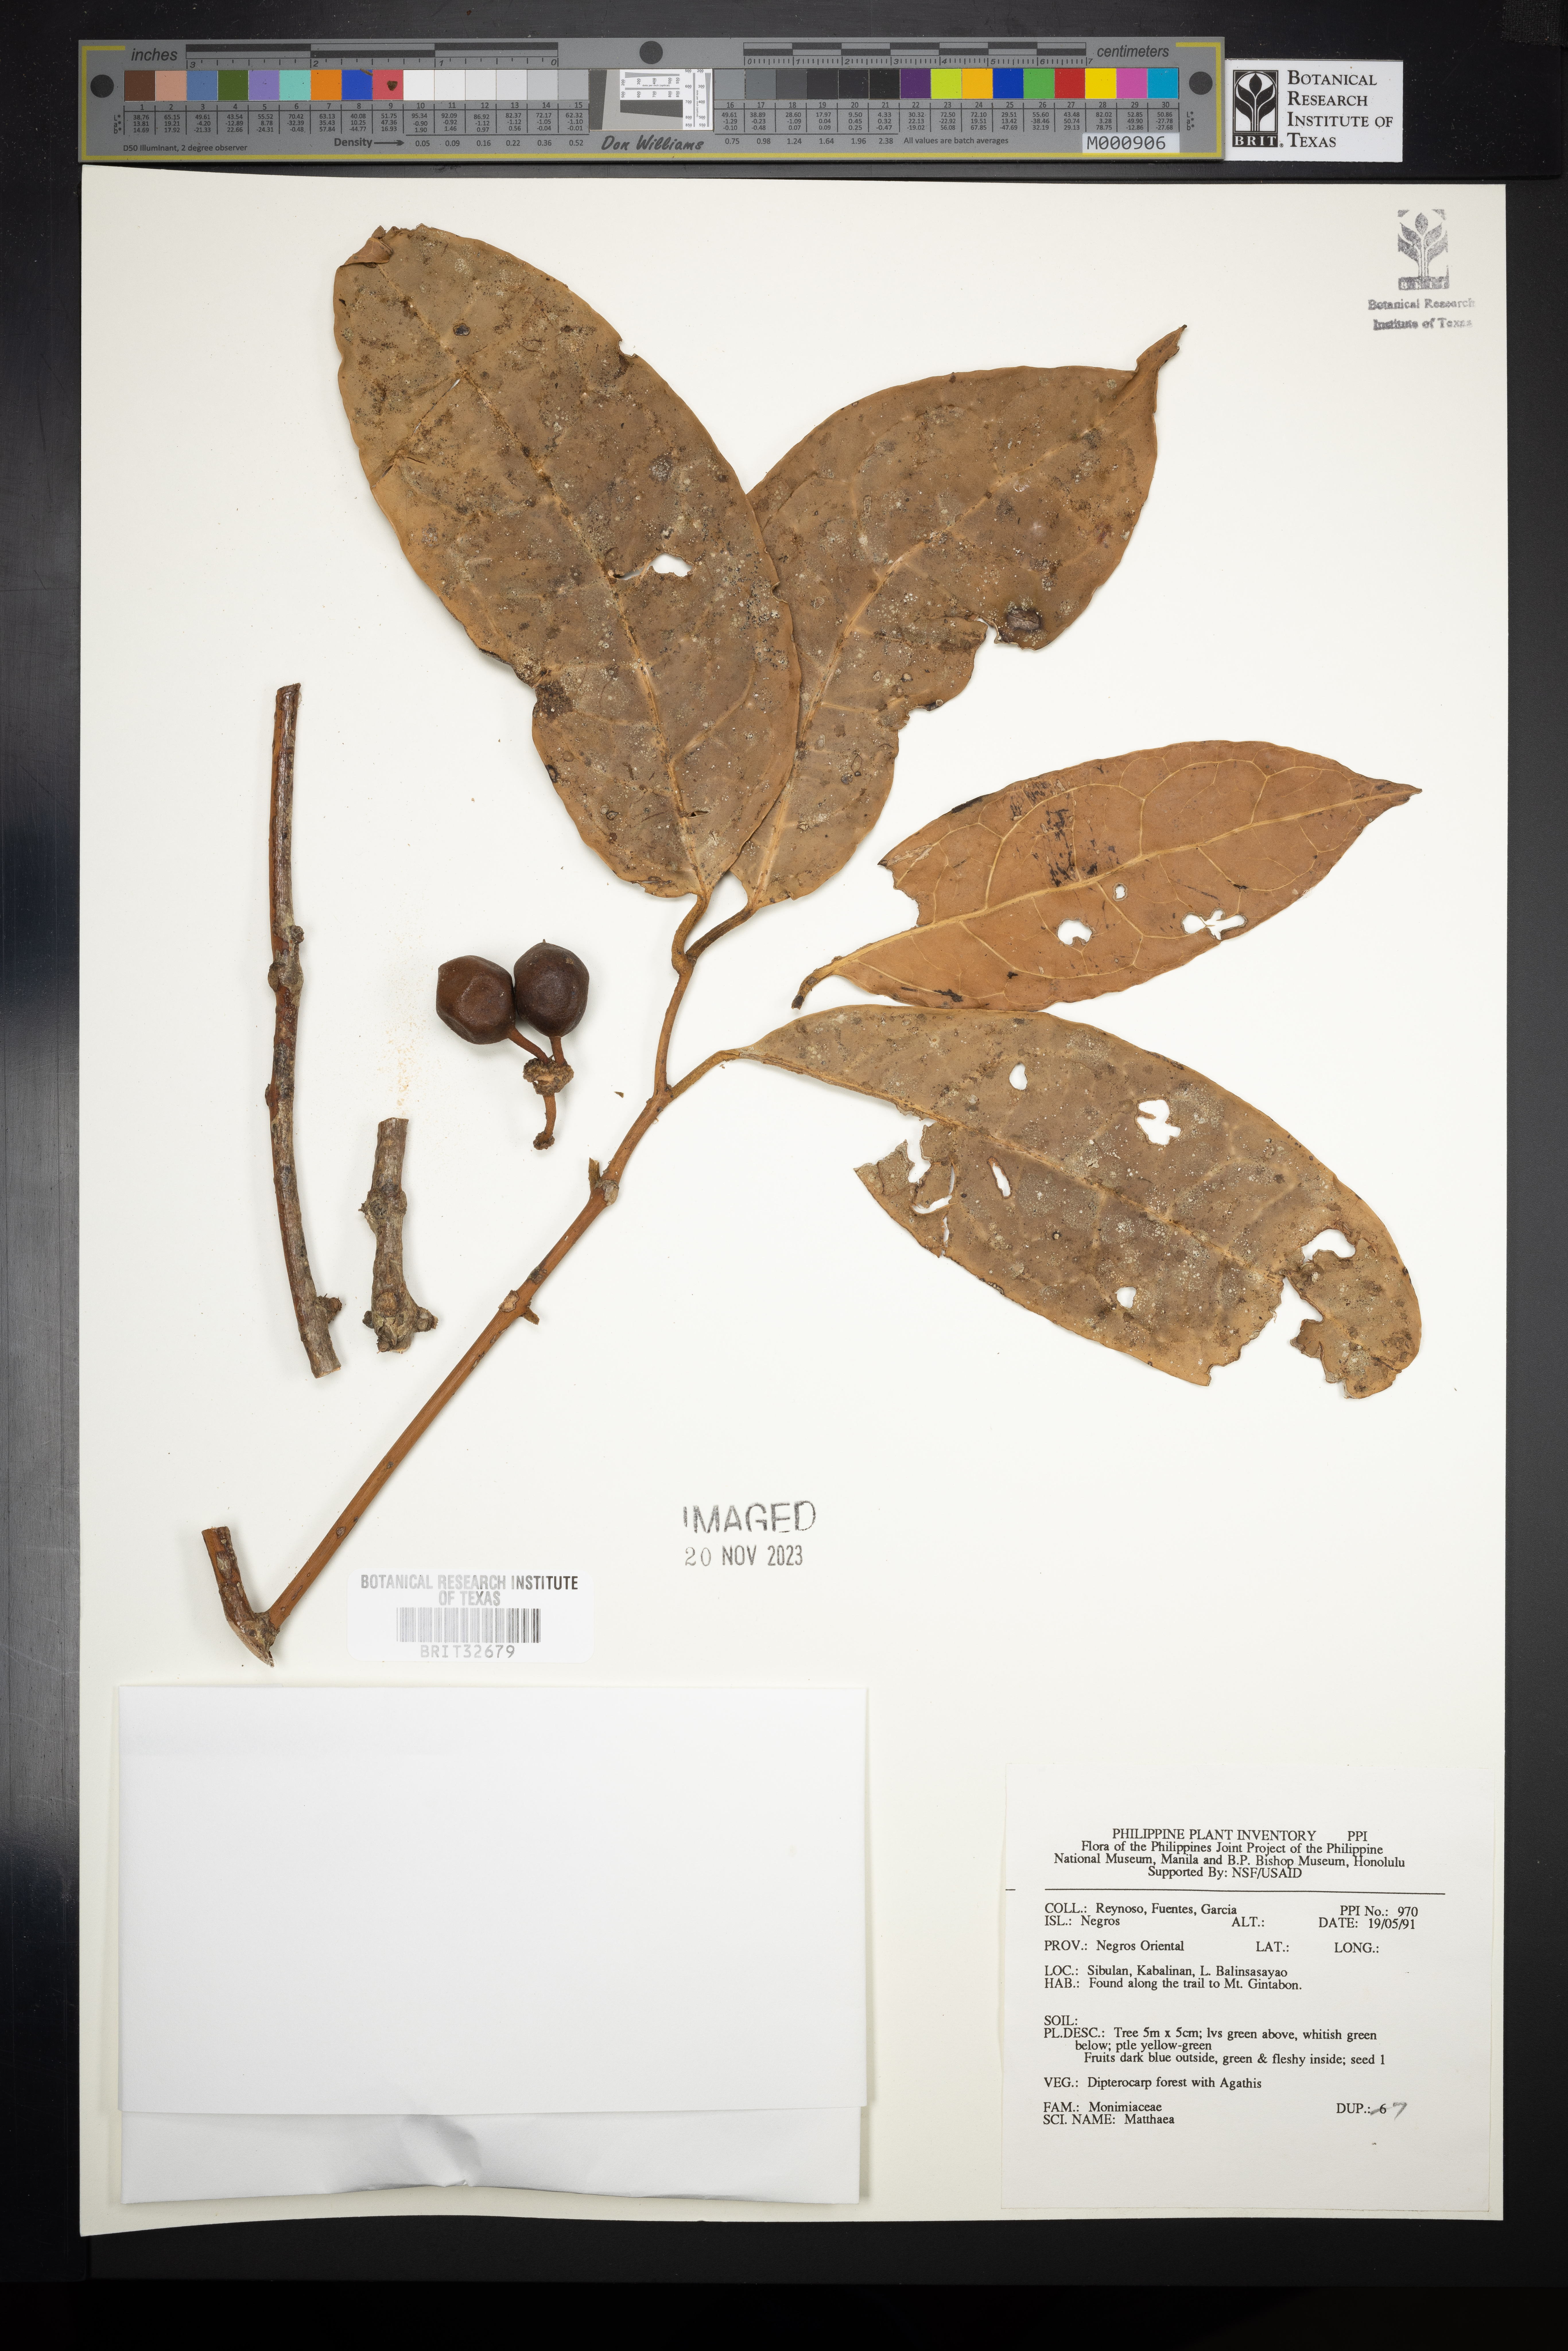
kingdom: Plantae
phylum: Tracheophyta
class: Magnoliopsida
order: Laurales
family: Monimiaceae
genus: Matthaea
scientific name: Matthaea
